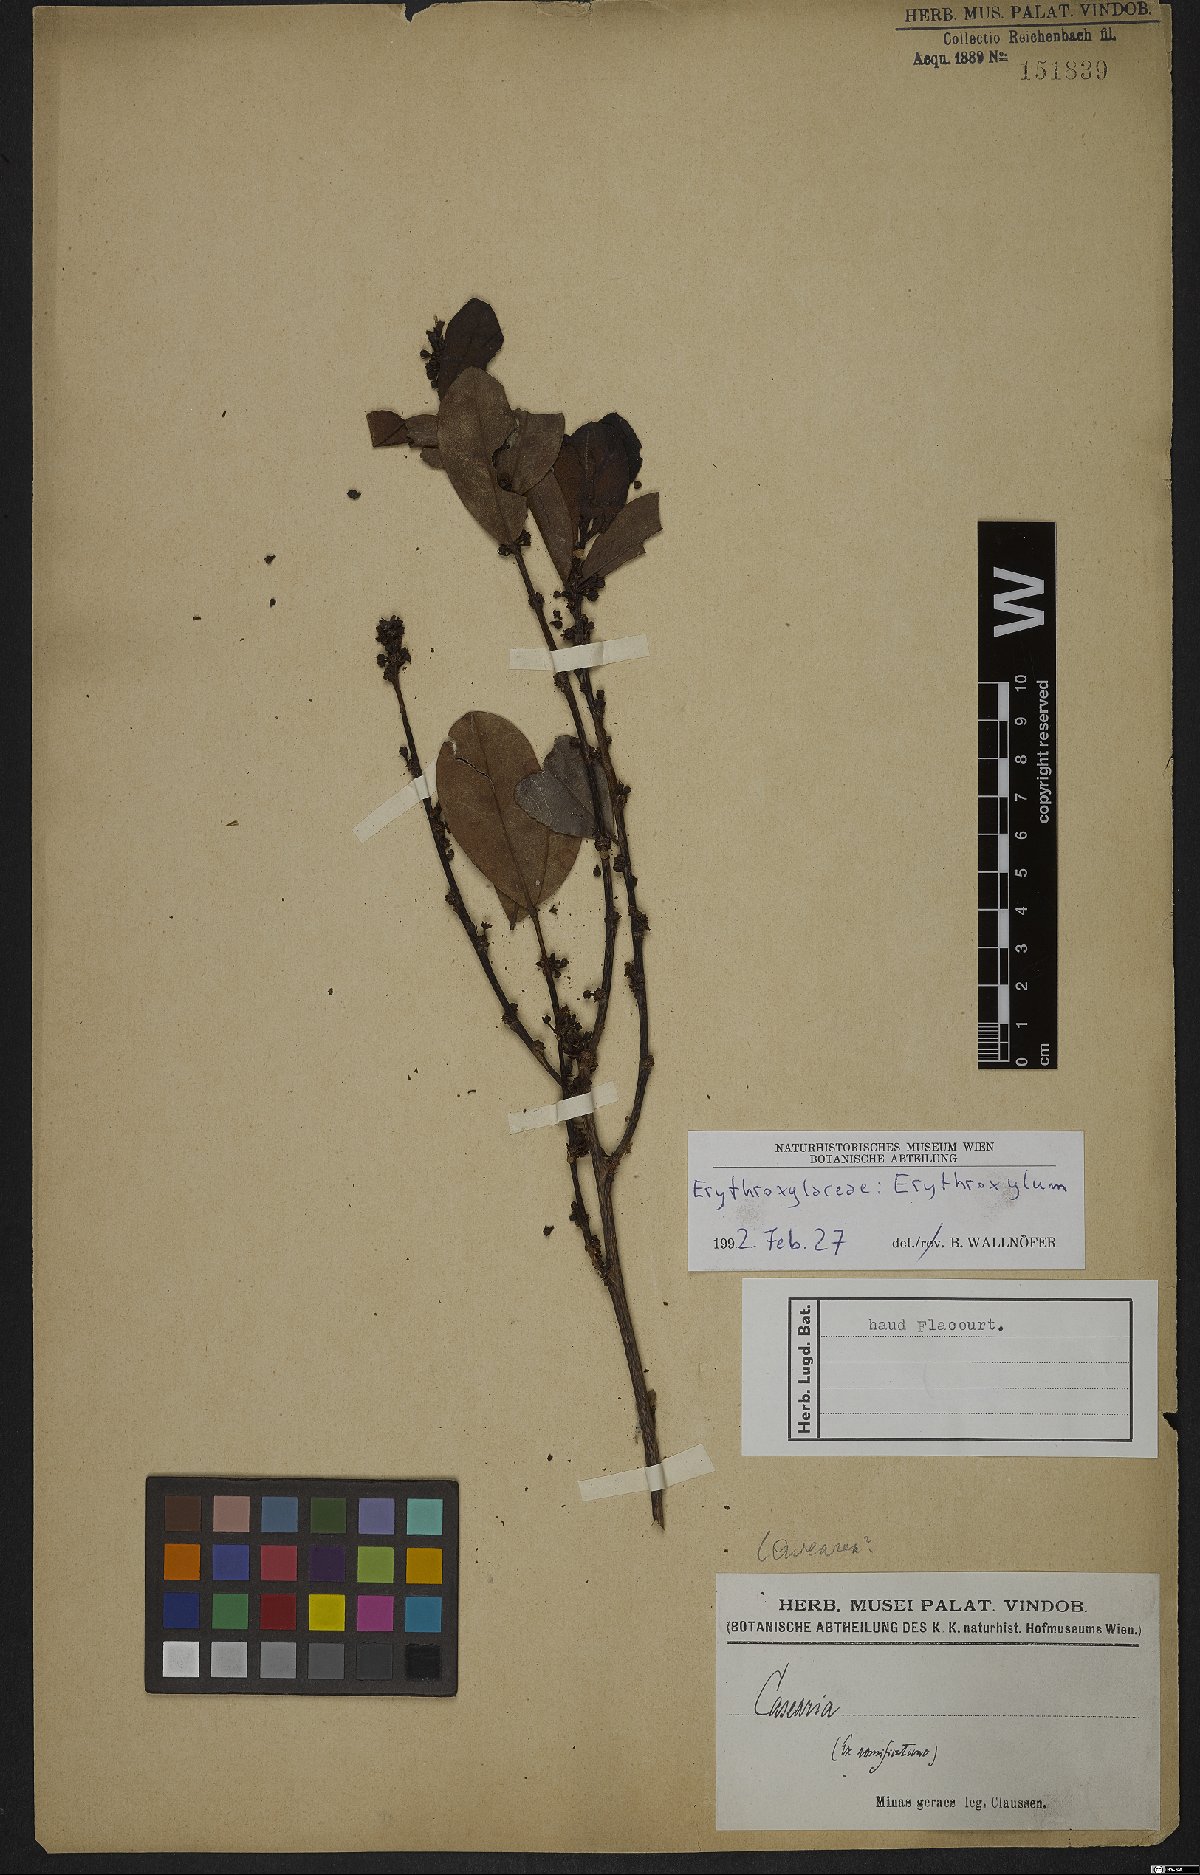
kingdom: Plantae
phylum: Tracheophyta
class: Magnoliopsida
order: Malpighiales
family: Erythroxylaceae
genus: Erythroxylum
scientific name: Erythroxylum
